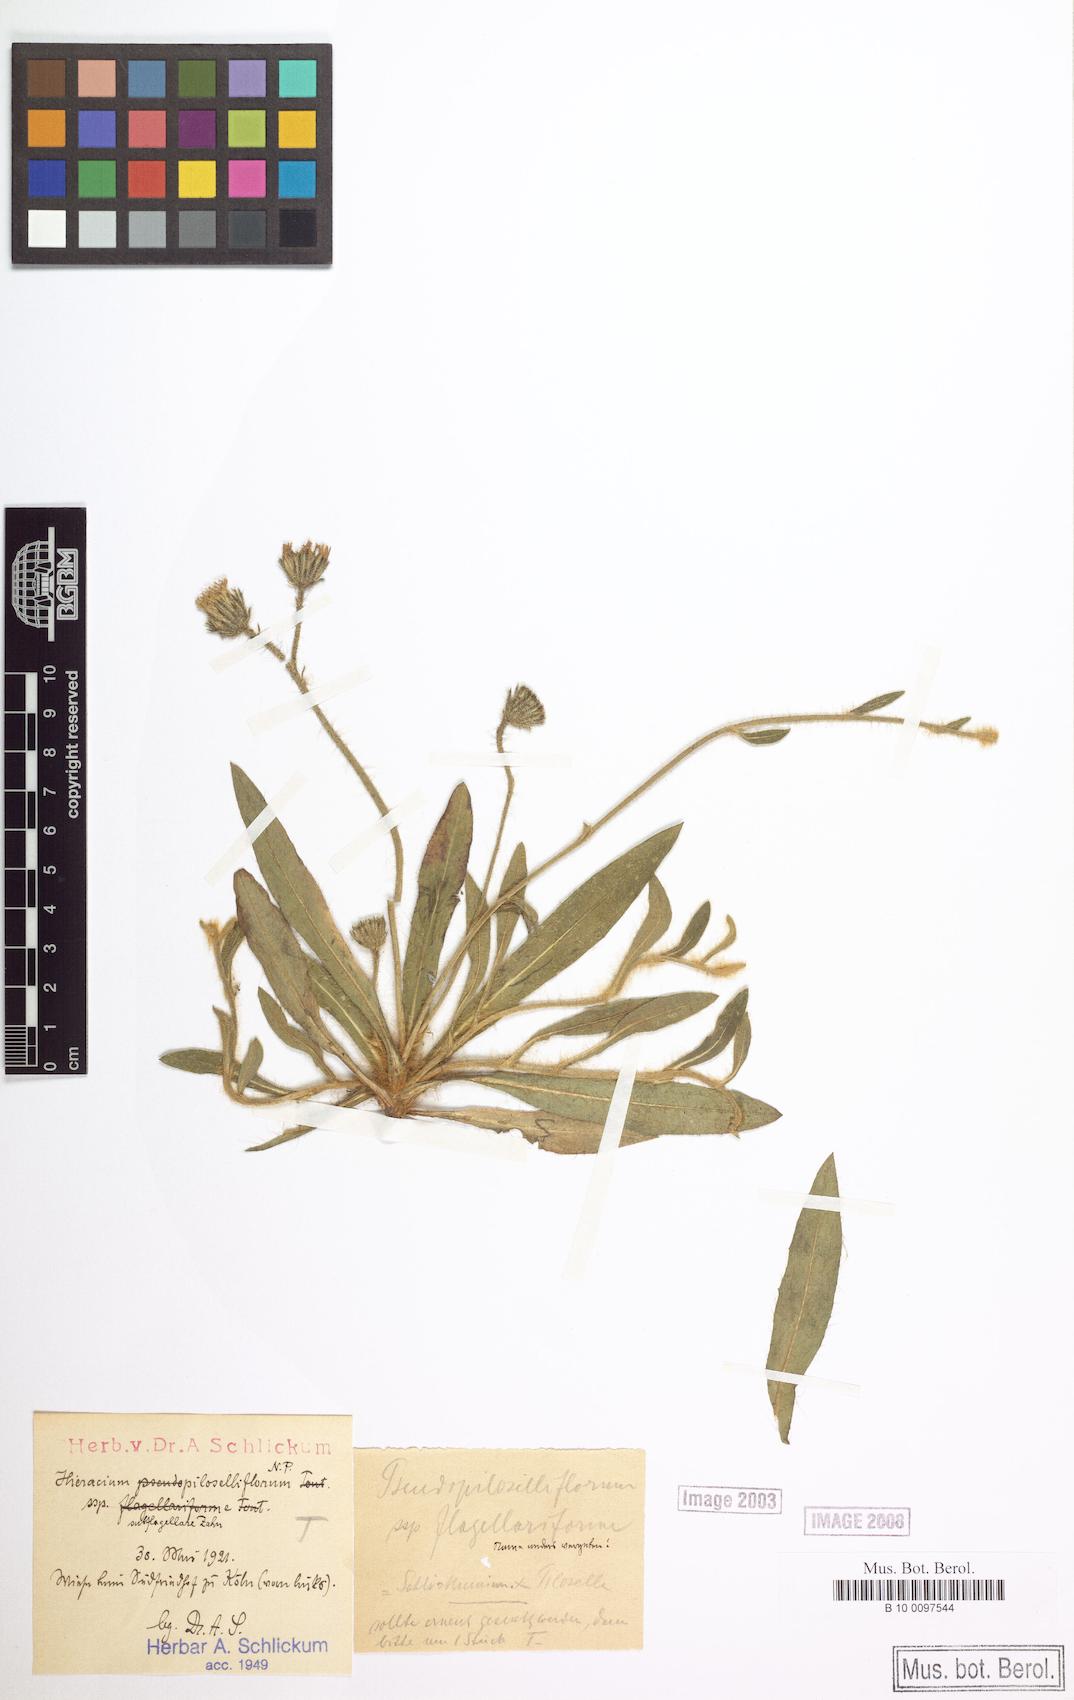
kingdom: Plantae
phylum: Tracheophyta
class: Magnoliopsida
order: Asterales
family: Asteraceae
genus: Pilosella
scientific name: Pilosella piloselliflora
